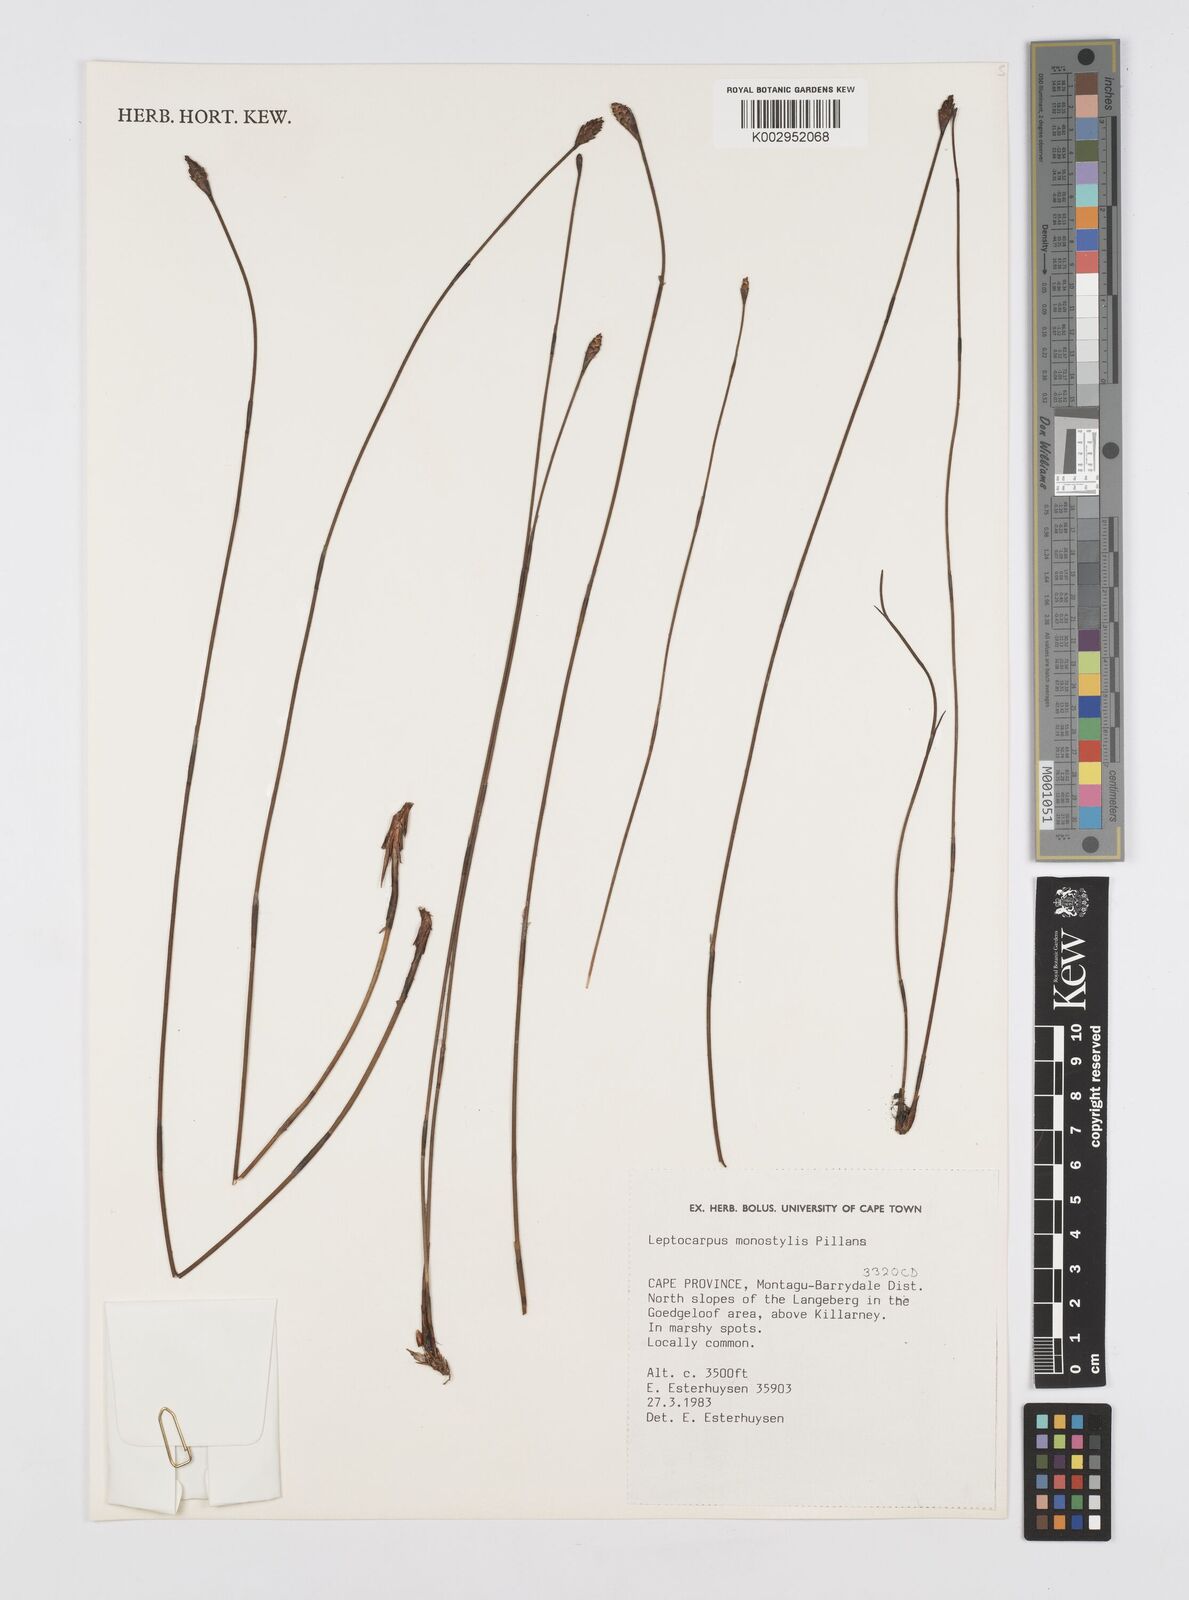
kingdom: Plantae
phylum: Tracheophyta
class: Liliopsida
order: Poales
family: Restionaceae
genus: Restio
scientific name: Restio monostylis
